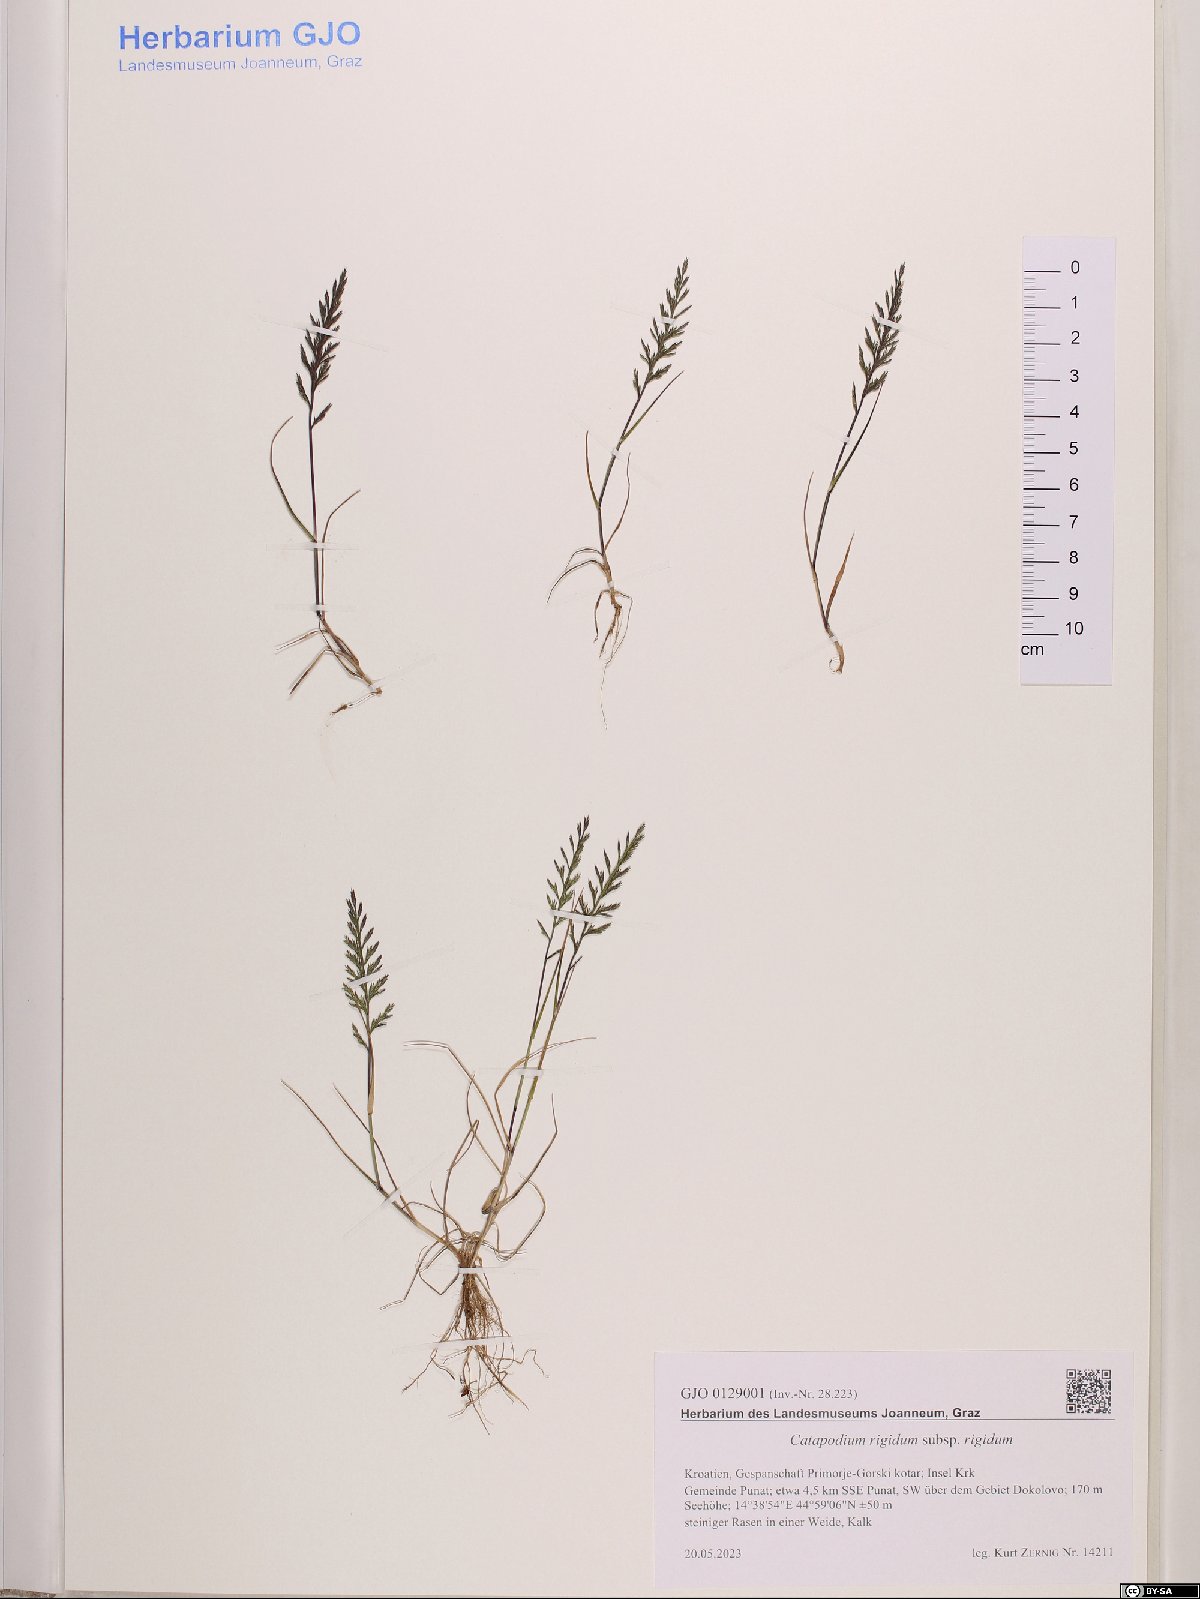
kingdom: Plantae
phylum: Tracheophyta
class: Liliopsida
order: Poales
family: Poaceae
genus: Catapodium
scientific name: Catapodium rigidum
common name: Fern-grass
